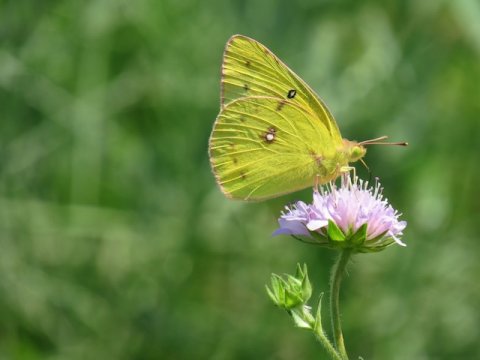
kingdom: Animalia
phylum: Arthropoda
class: Insecta
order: Lepidoptera
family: Pieridae
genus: Colias
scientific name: Colias philodice
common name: Clouded Sulphur
